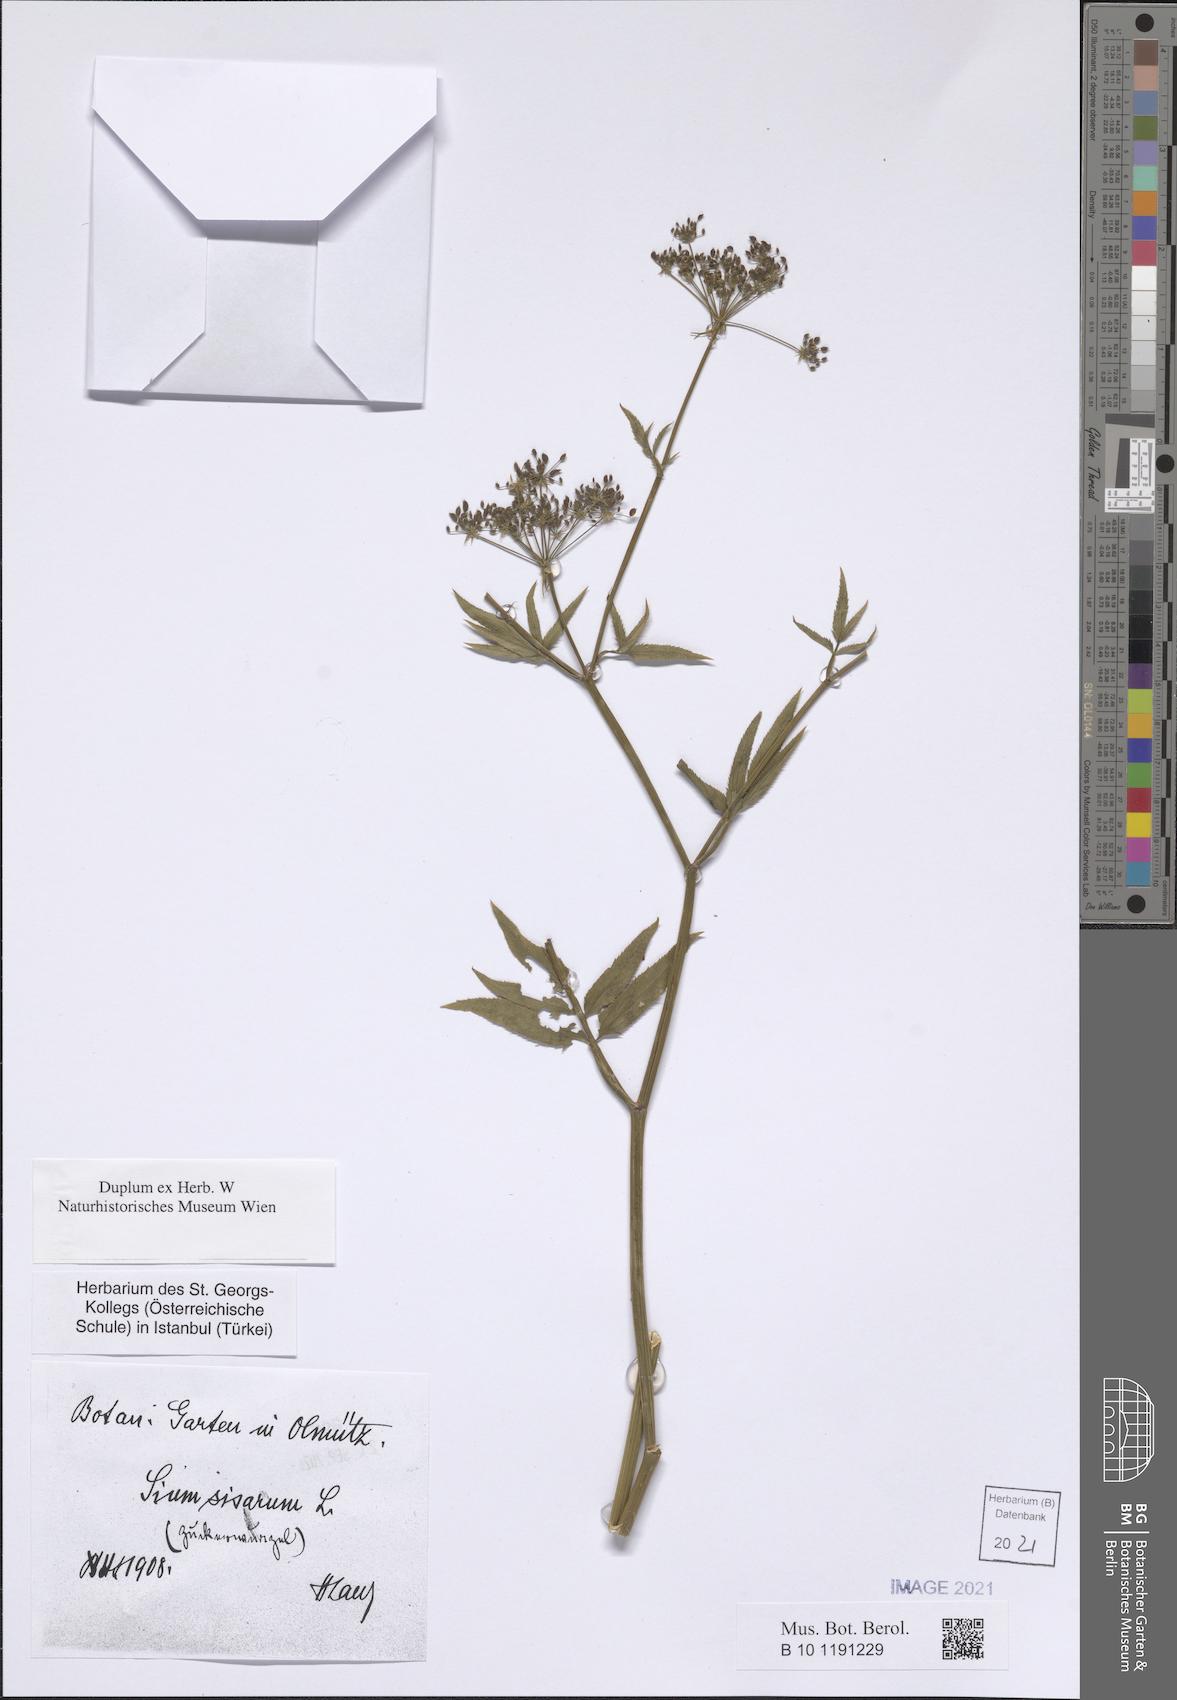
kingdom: Plantae
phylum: Tracheophyta
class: Magnoliopsida
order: Apiales
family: Apiaceae
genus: Sium
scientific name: Sium sisarum
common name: Skirret
